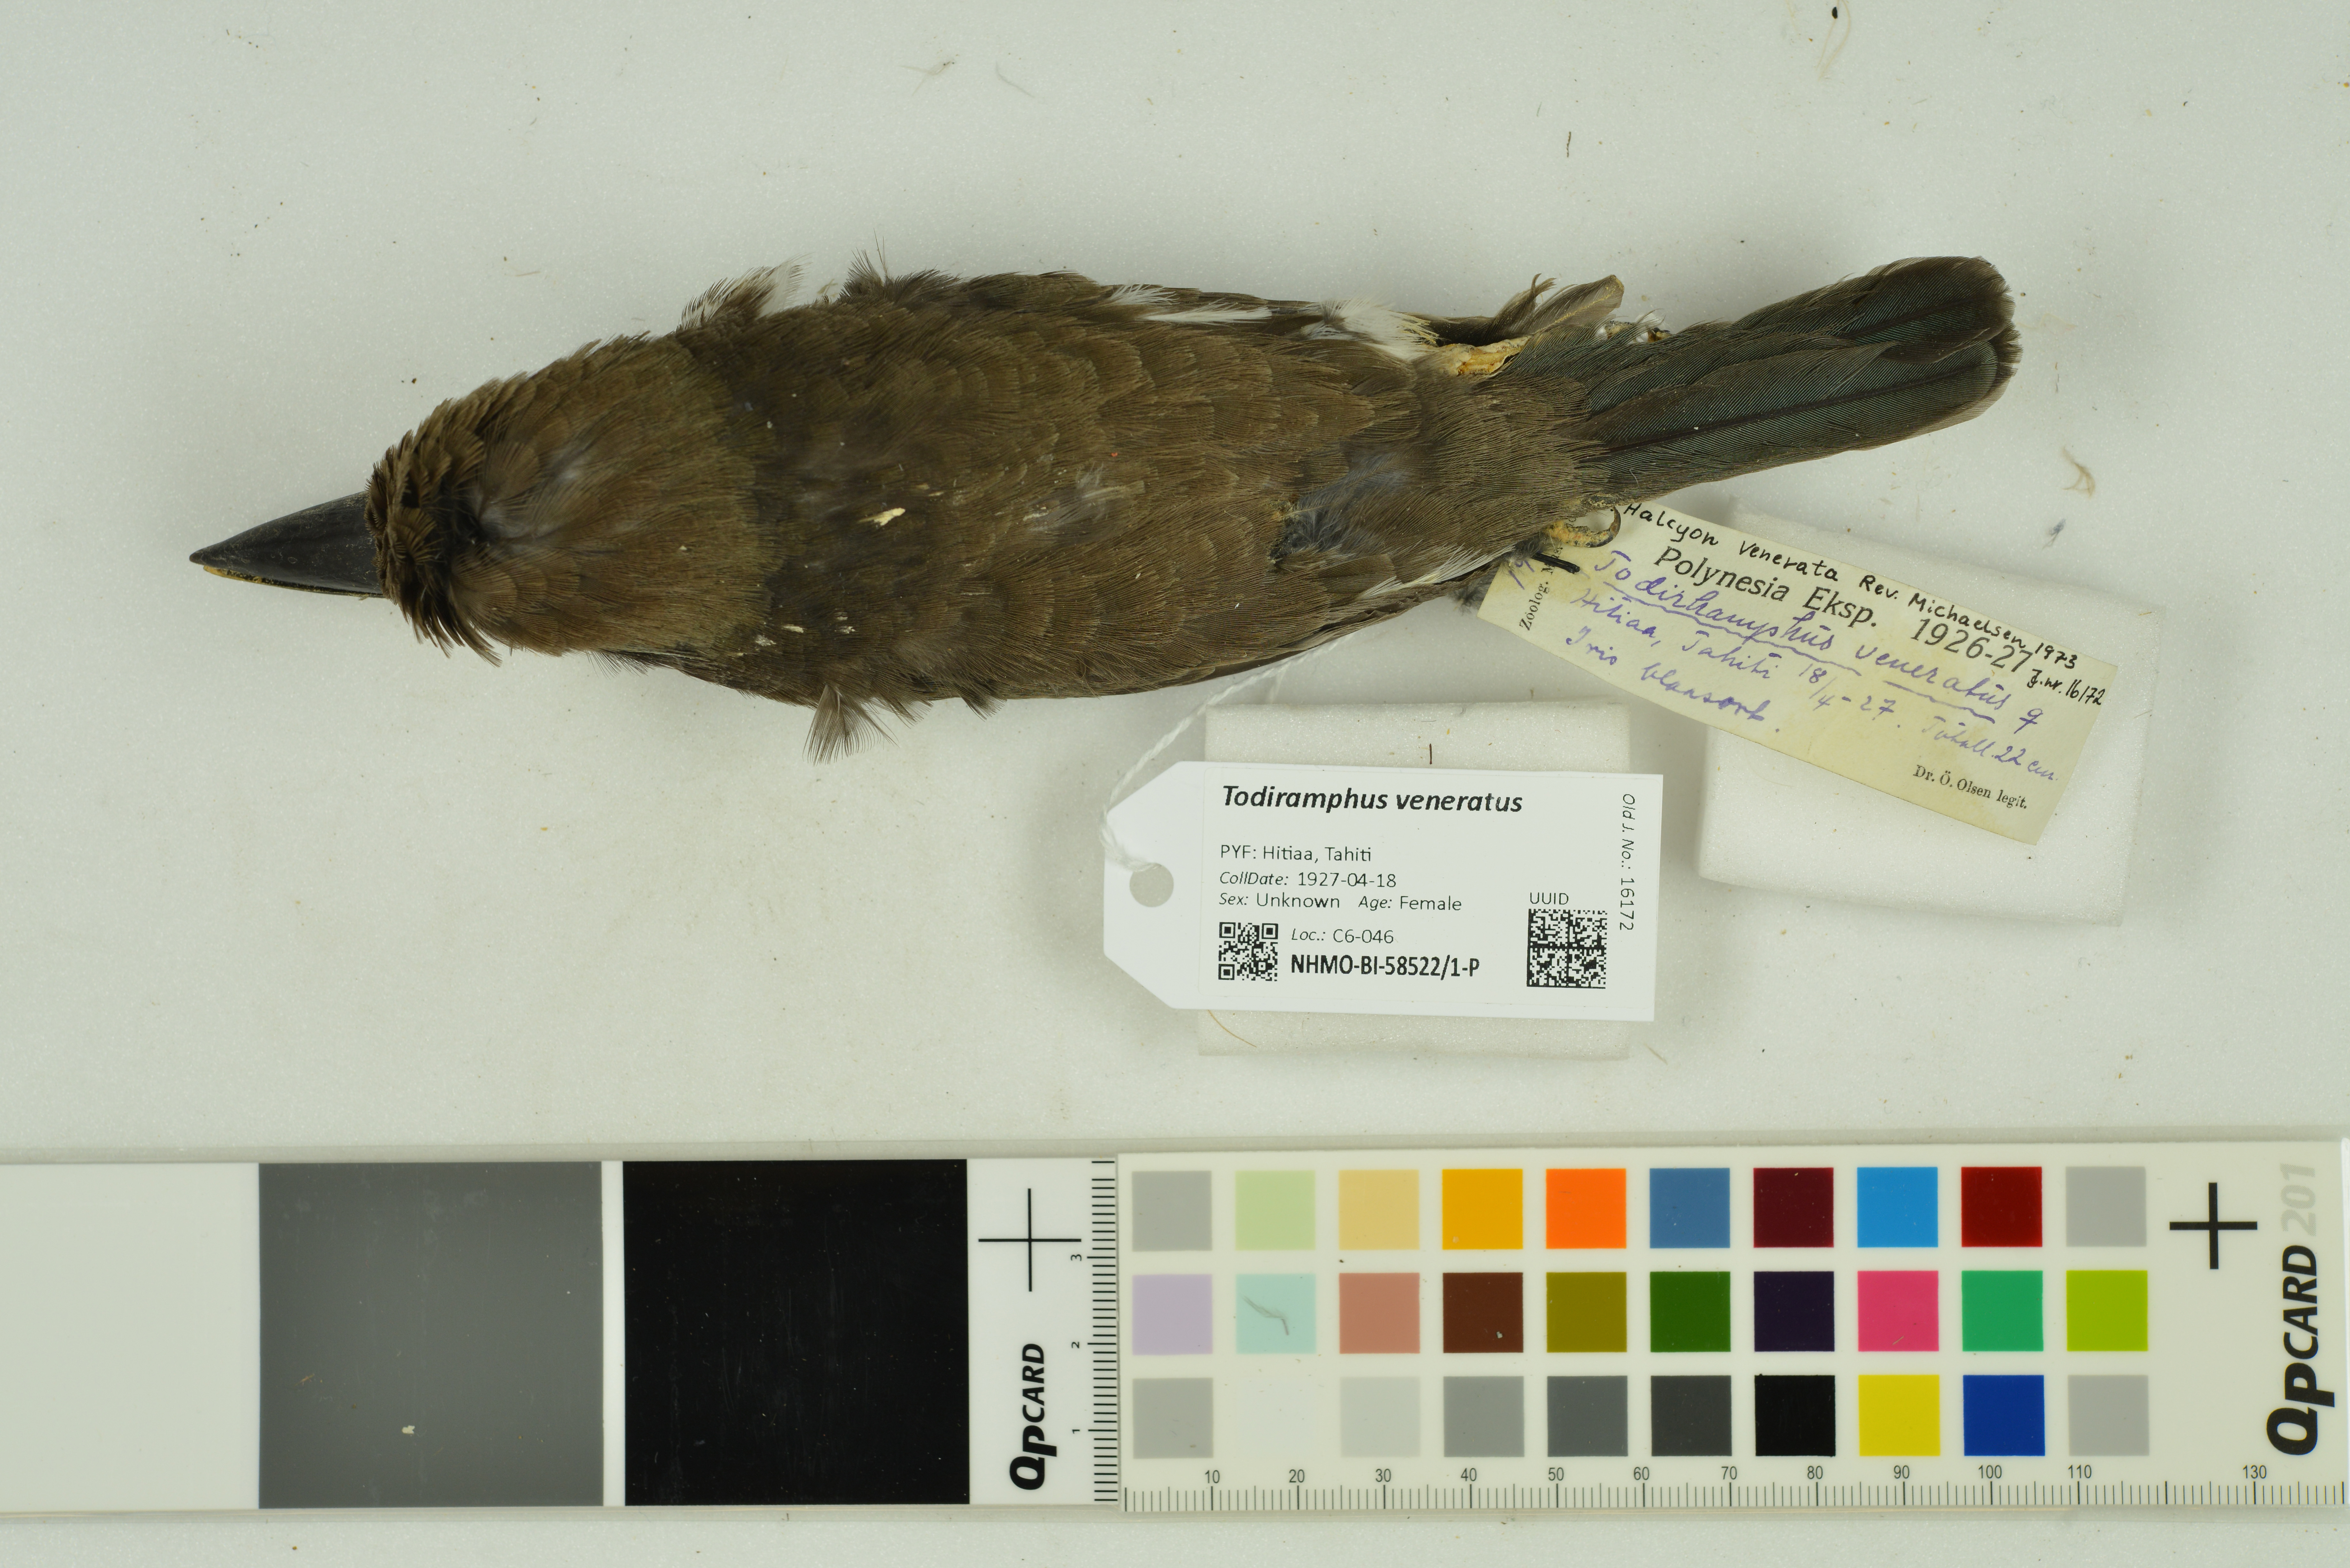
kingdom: Animalia
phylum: Chordata
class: Aves
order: Coraciiformes
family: Alcedinidae
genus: Todiramphus
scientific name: Todiramphus veneratus
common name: Society kingfisher
